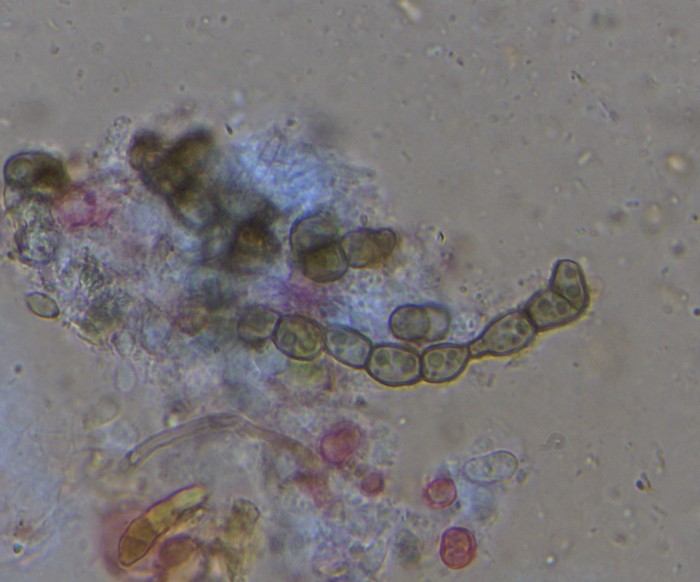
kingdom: Fungi
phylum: Ascomycota
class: Sordariomycetes
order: Hypocreales
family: Nectriaceae
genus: Fusarium
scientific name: Fusarium roseum
